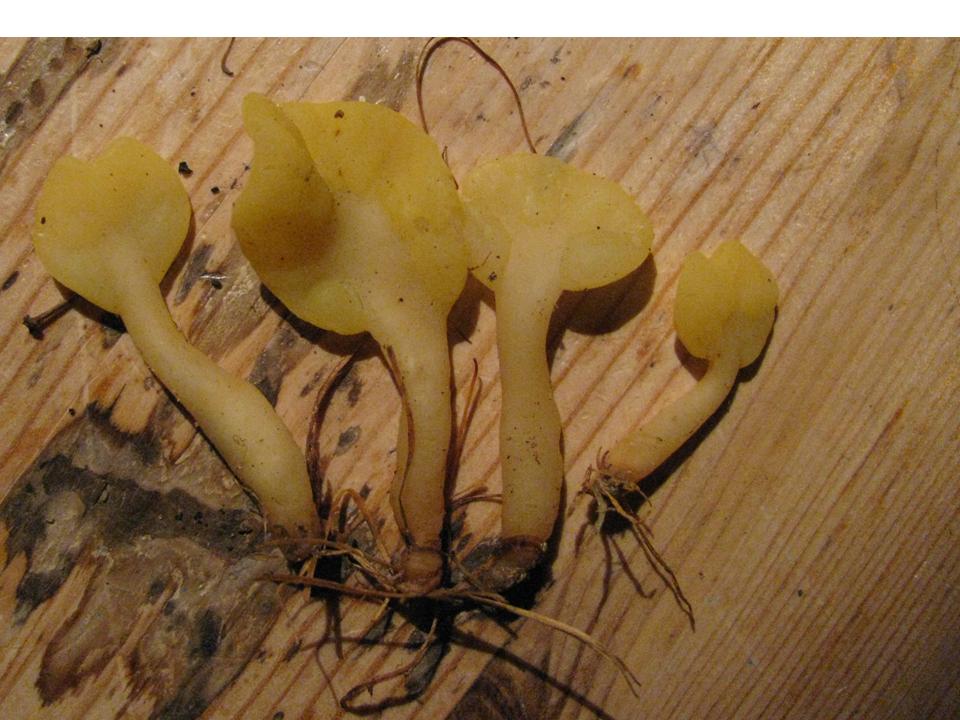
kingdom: Fungi
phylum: Ascomycota
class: Leotiomycetes
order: Rhytismatales
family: Cudoniaceae
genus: Spathularia
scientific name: Spathularia flavida
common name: gul spatelsvamp
